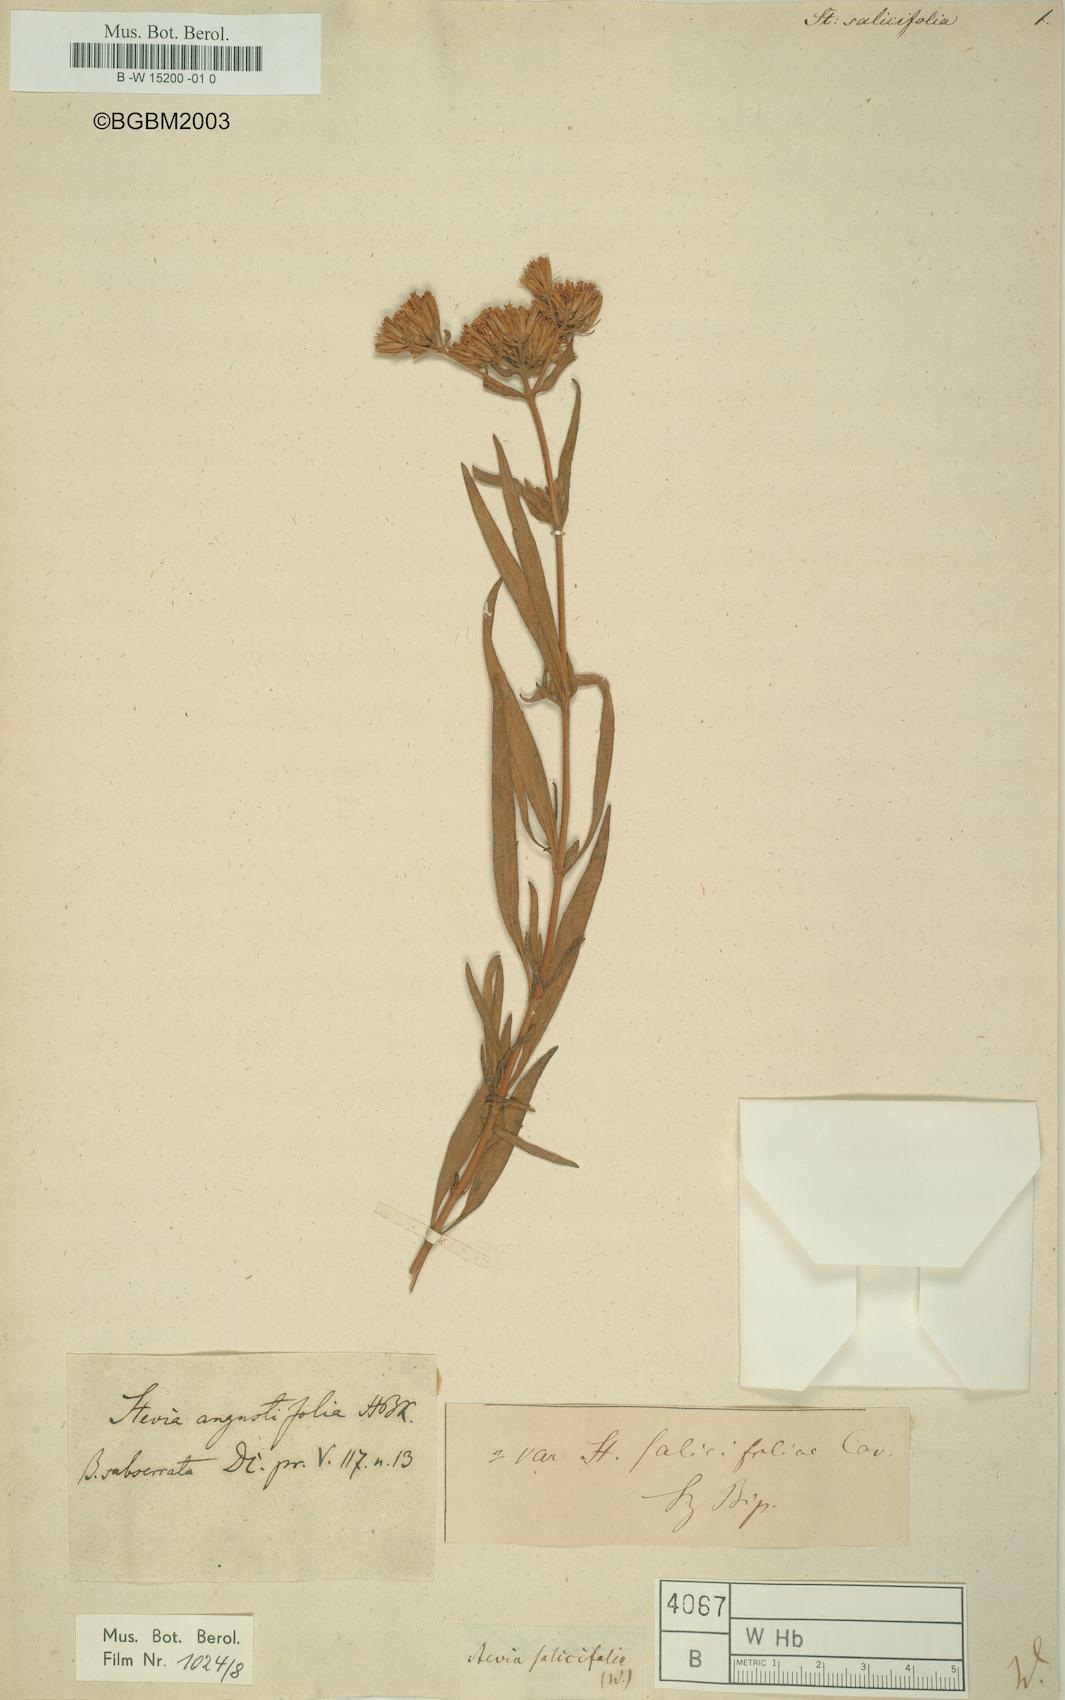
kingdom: Plantae
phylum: Tracheophyta
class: Magnoliopsida
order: Asterales
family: Asteraceae
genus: Stevia
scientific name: Stevia salicifolia
